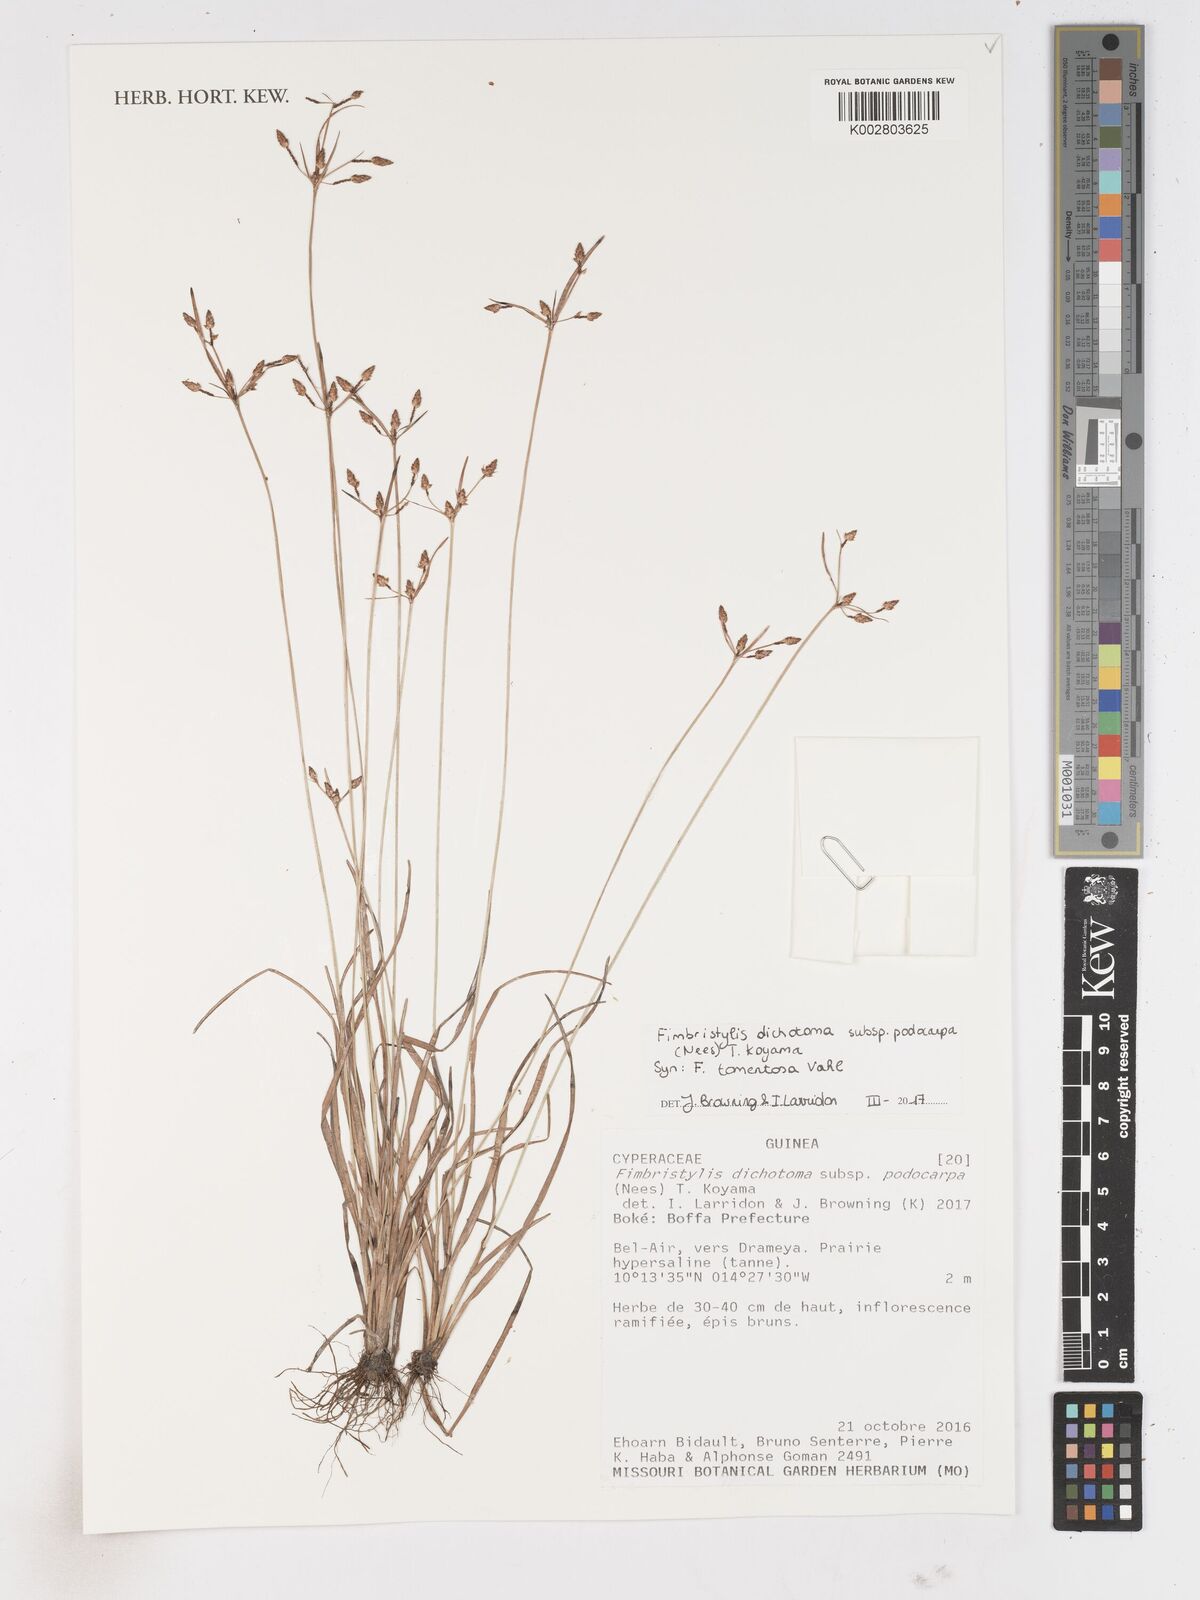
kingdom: Plantae
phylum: Tracheophyta
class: Liliopsida
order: Poales
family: Cyperaceae
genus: Fimbristylis
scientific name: Fimbristylis dichotoma
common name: Forked fimbry
